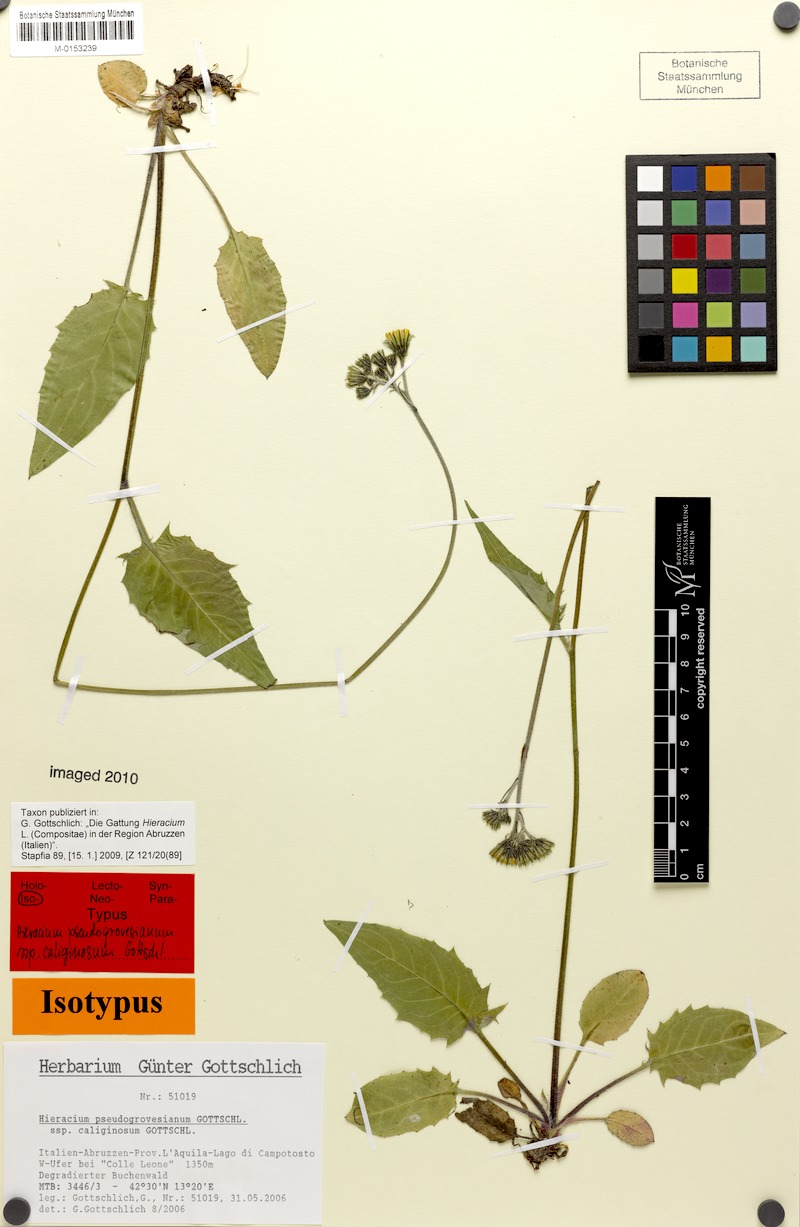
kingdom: Plantae
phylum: Tracheophyta
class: Magnoliopsida
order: Asterales
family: Asteraceae
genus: Hieracium
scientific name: Hieracium pseudogrovesianum
